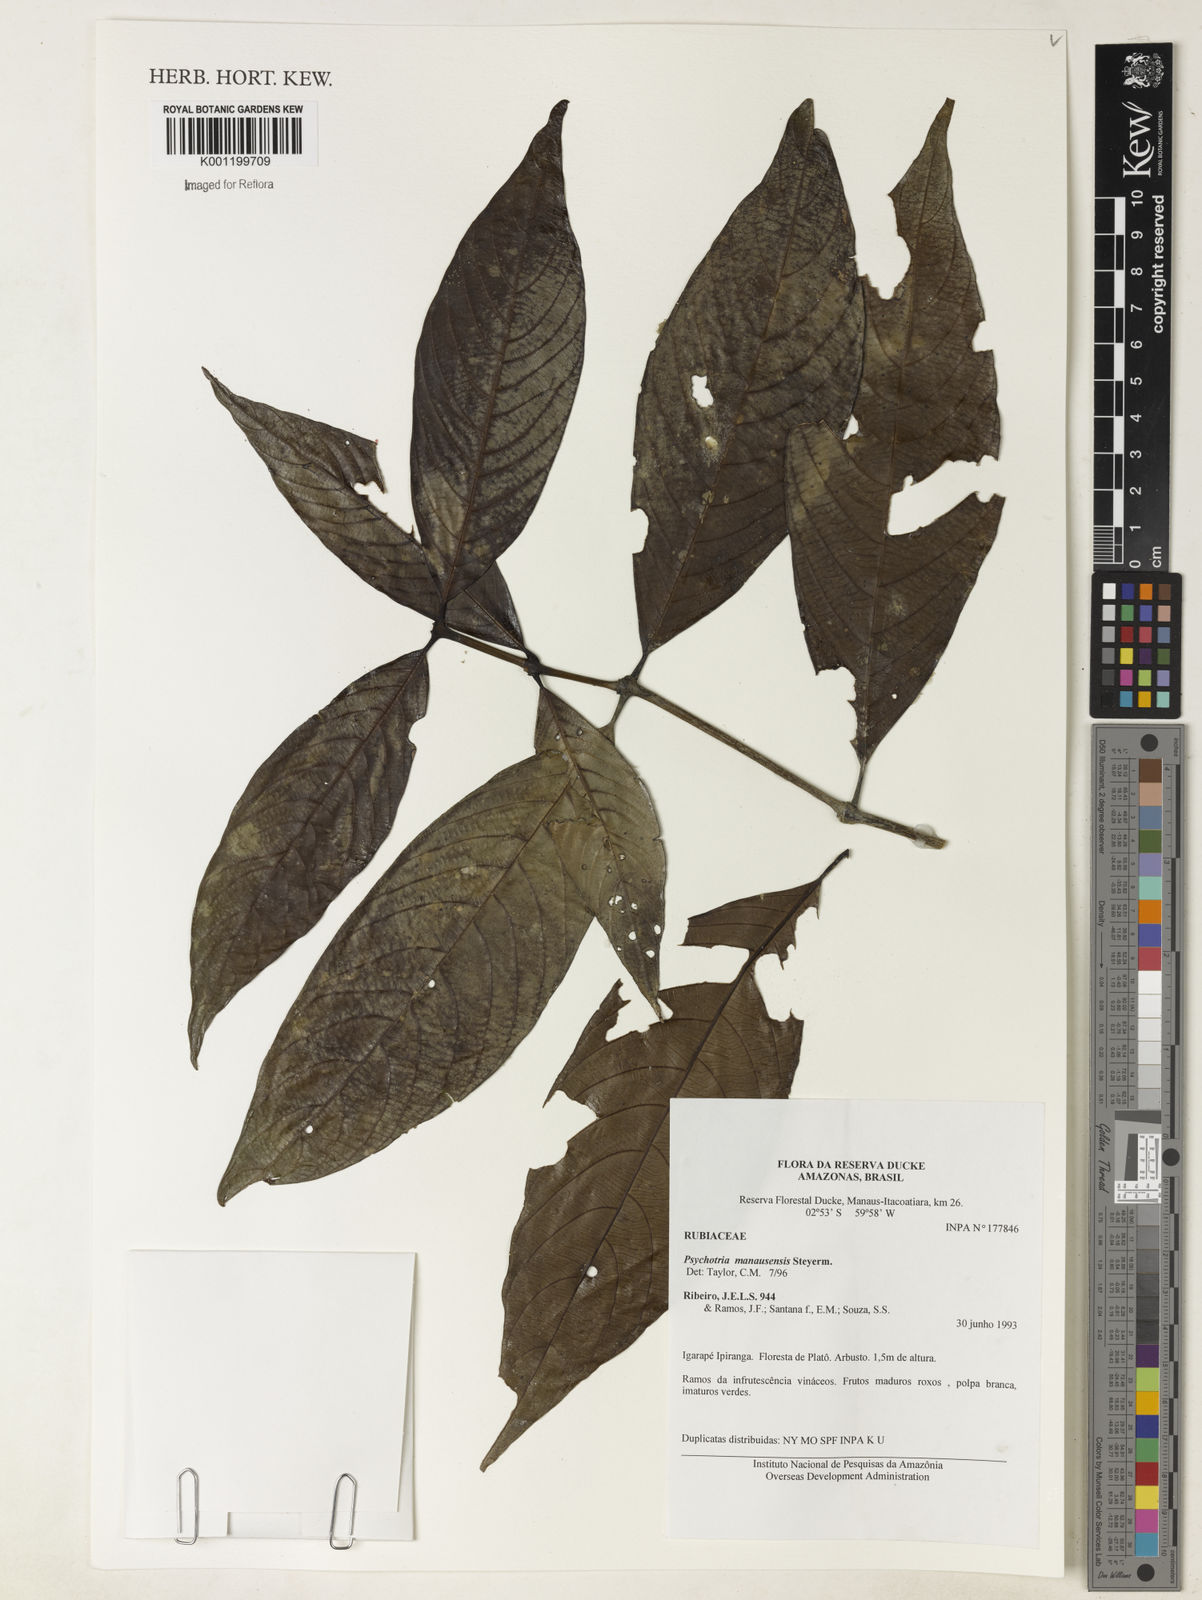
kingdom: Plantae
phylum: Tracheophyta
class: Magnoliopsida
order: Gentianales
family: Rubiaceae
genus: Palicourea
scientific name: Palicourea manausensis
